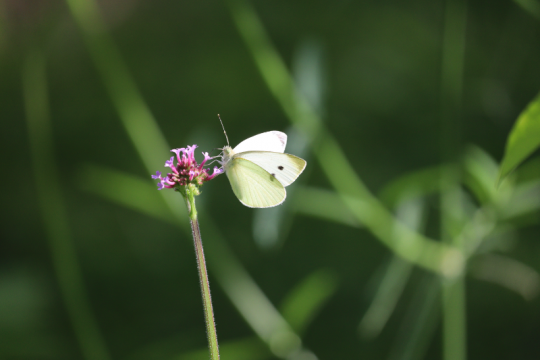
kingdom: Animalia
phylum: Arthropoda
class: Insecta
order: Lepidoptera
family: Pieridae
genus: Pieris
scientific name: Pieris rapae
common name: Cabbage White
